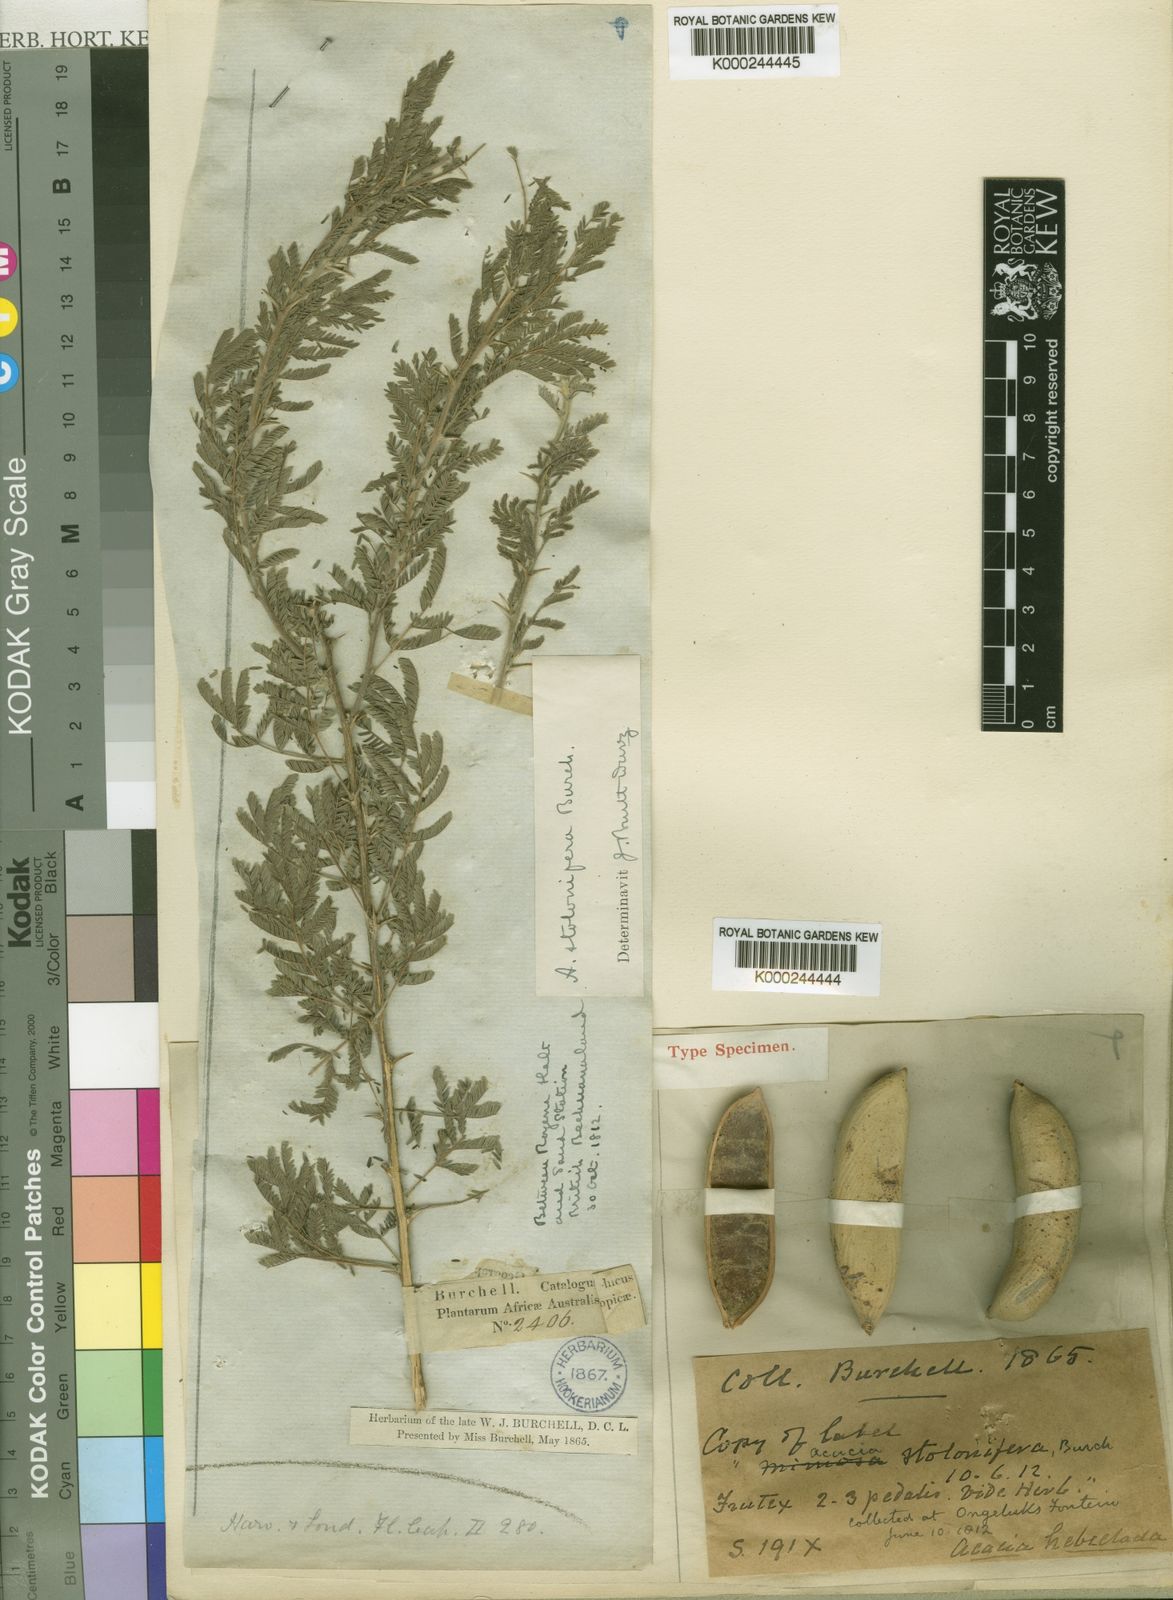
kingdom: Plantae
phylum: Tracheophyta
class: Magnoliopsida
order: Fabales
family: Fabaceae
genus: Vachellia
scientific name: Vachellia hebeclada
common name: Candle thorn
